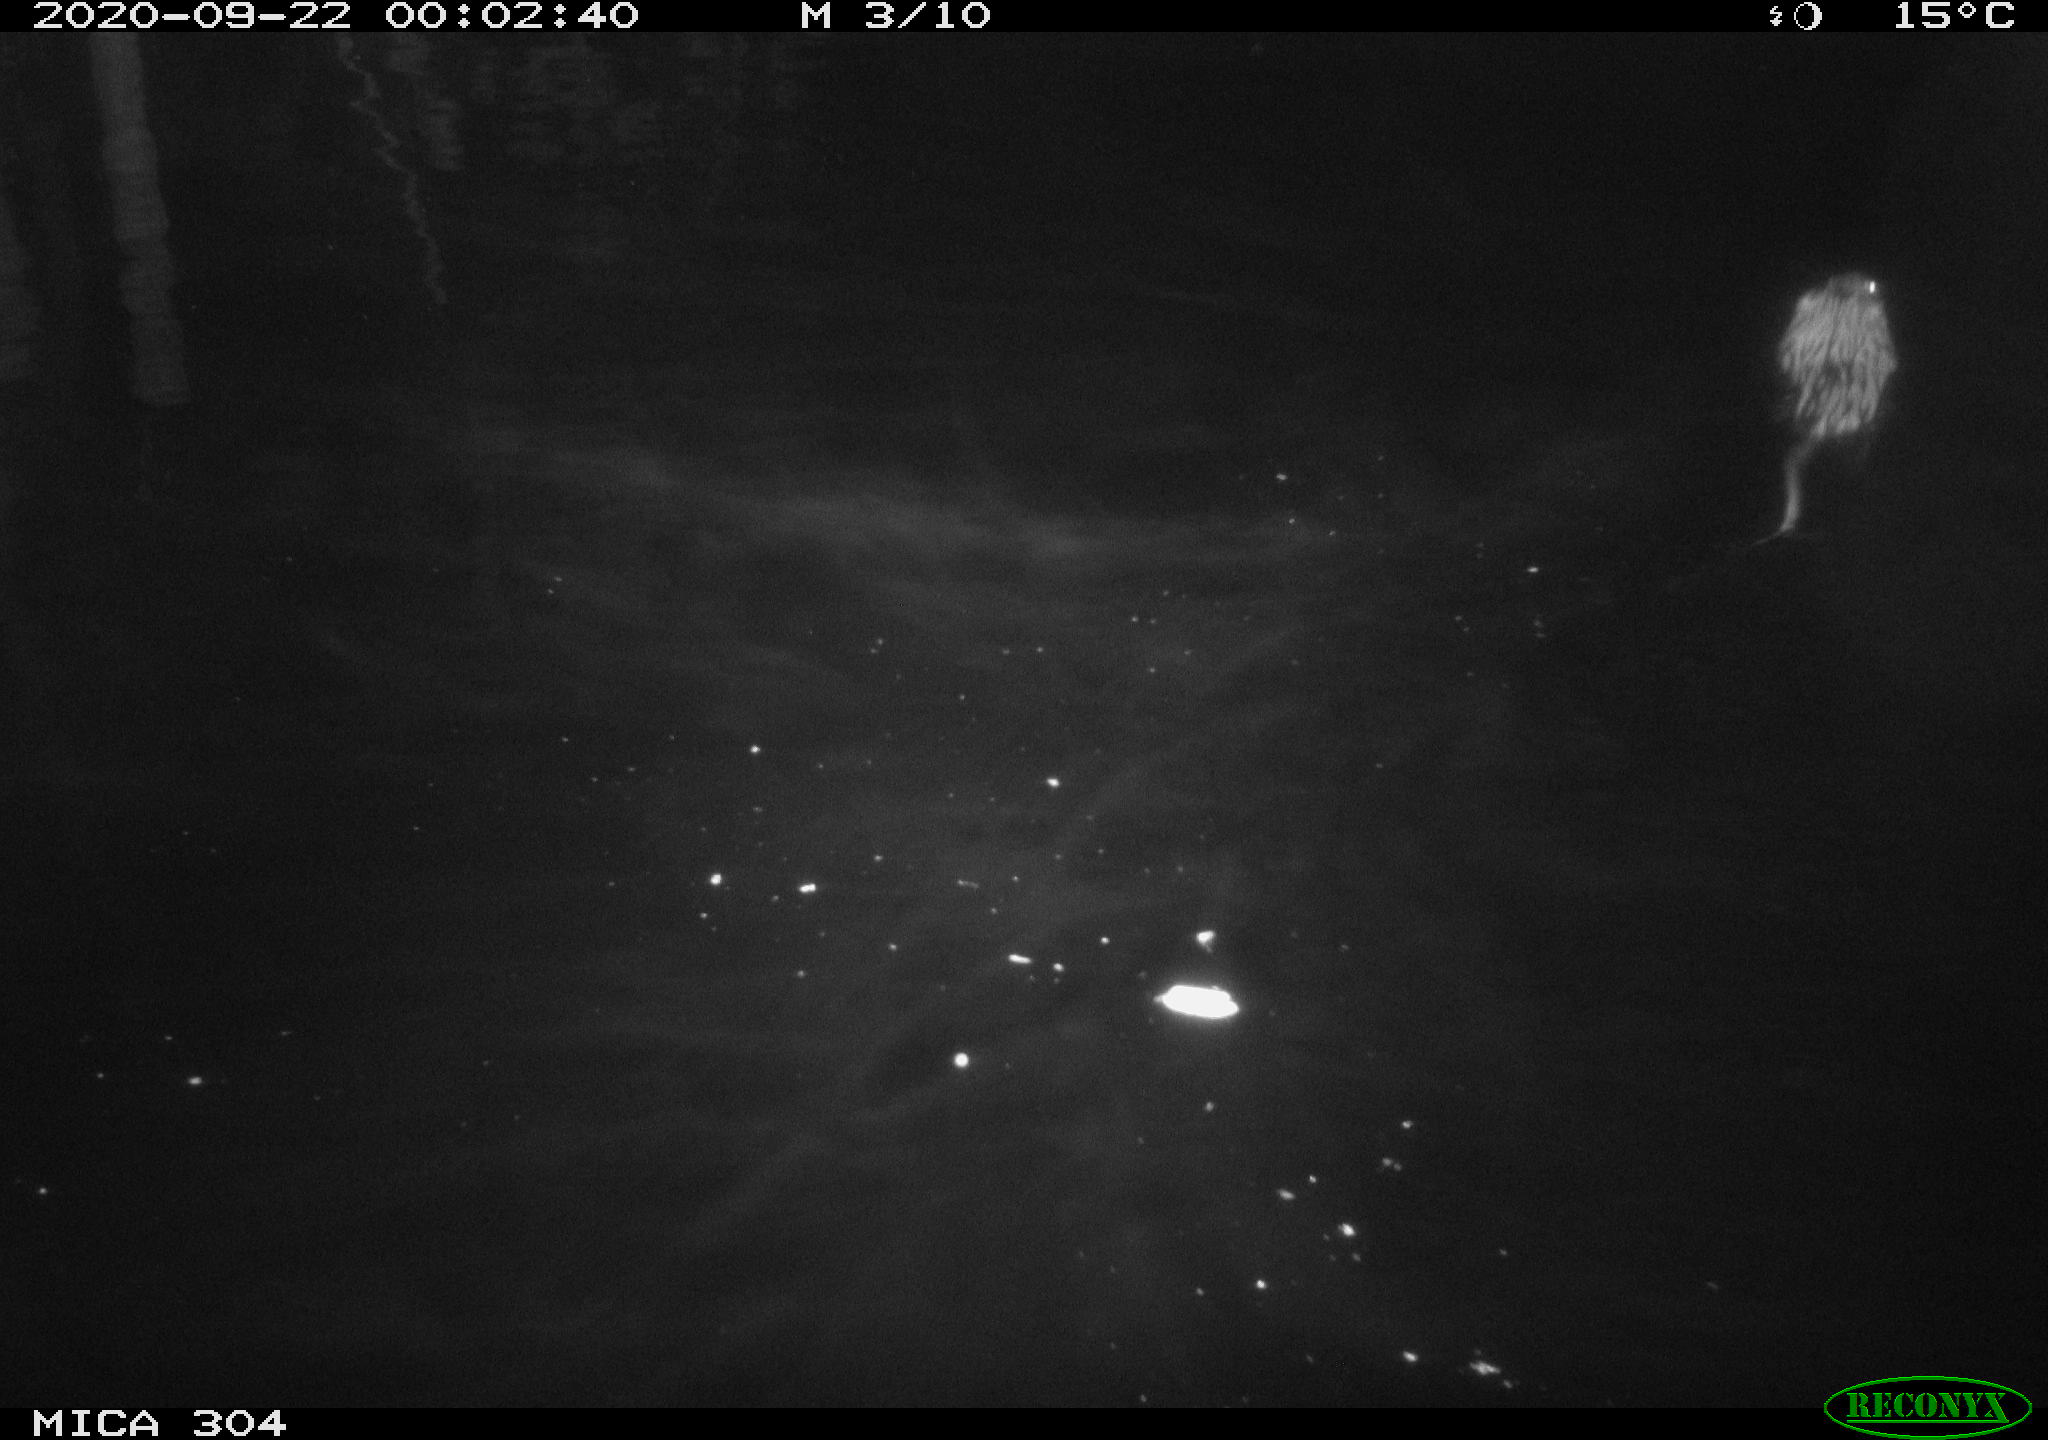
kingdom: Animalia
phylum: Chordata
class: Mammalia
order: Rodentia
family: Cricetidae
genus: Ondatra
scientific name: Ondatra zibethicus
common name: Muskrat
